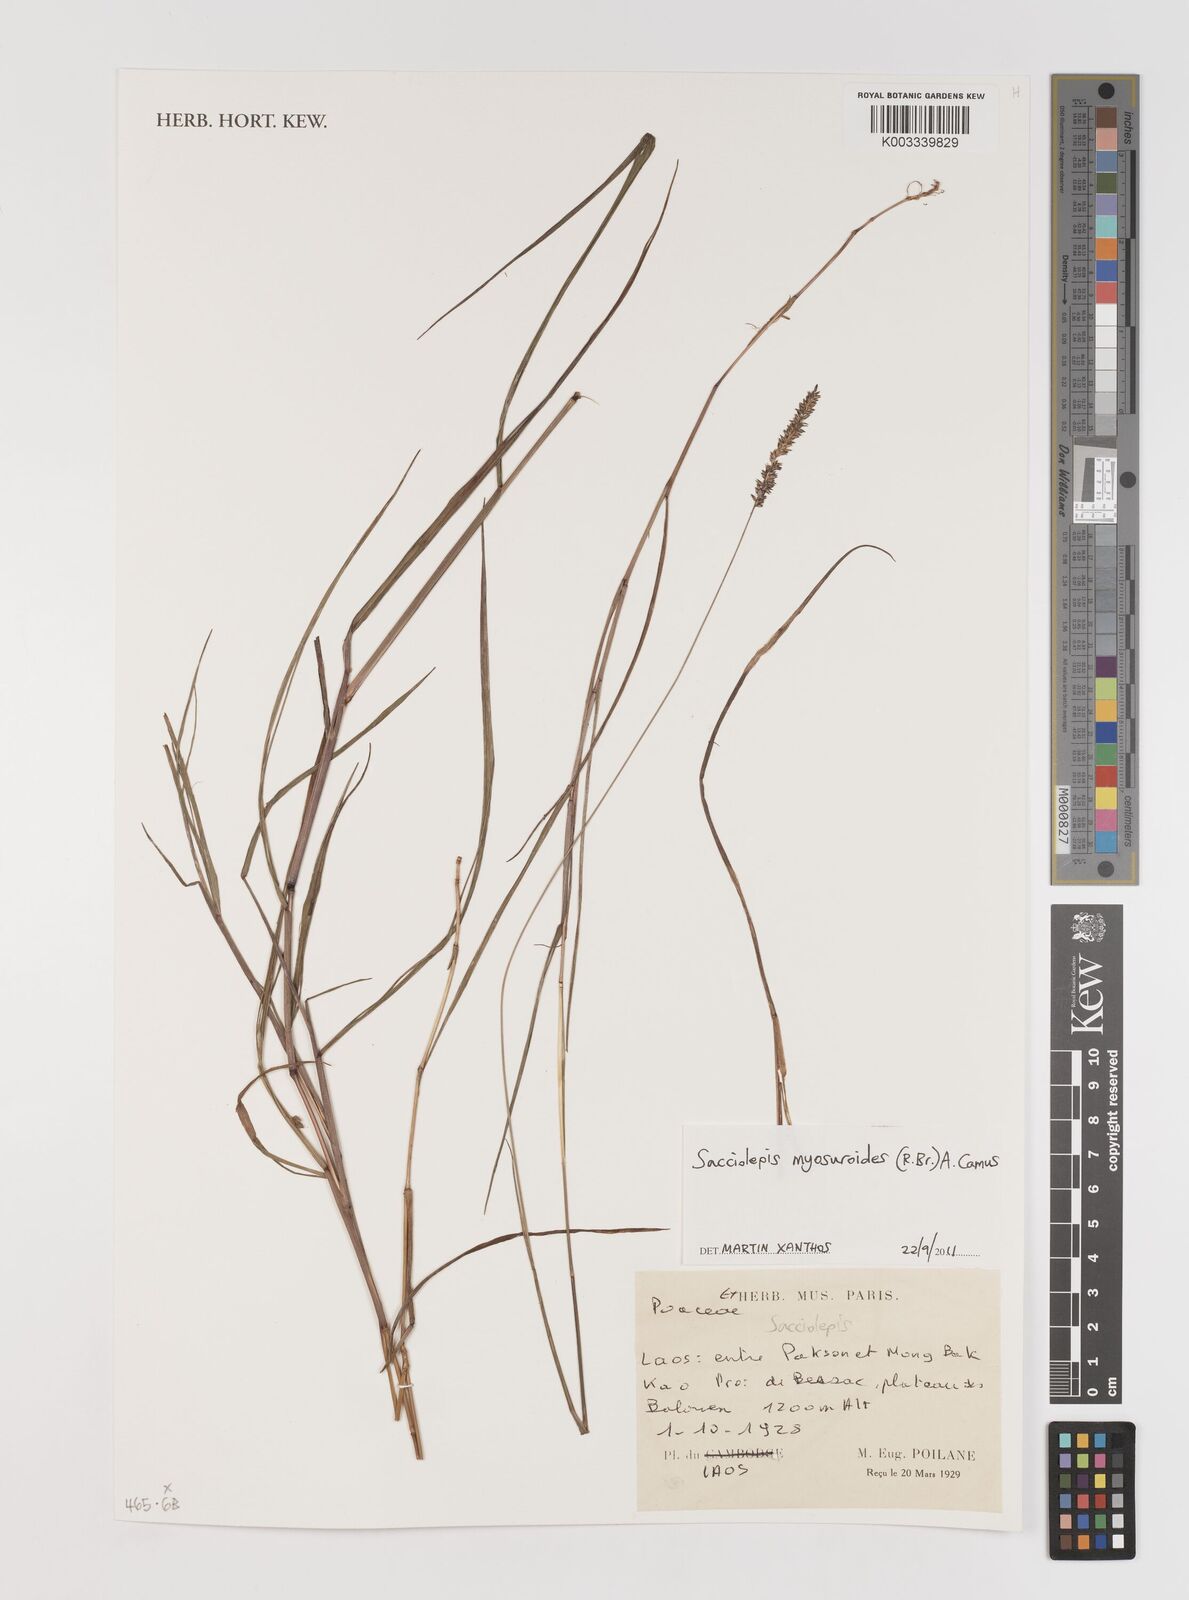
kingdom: Plantae
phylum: Tracheophyta
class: Liliopsida
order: Poales
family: Poaceae
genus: Setaria
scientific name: Setaria pumila
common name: Yellow bristle-grass
